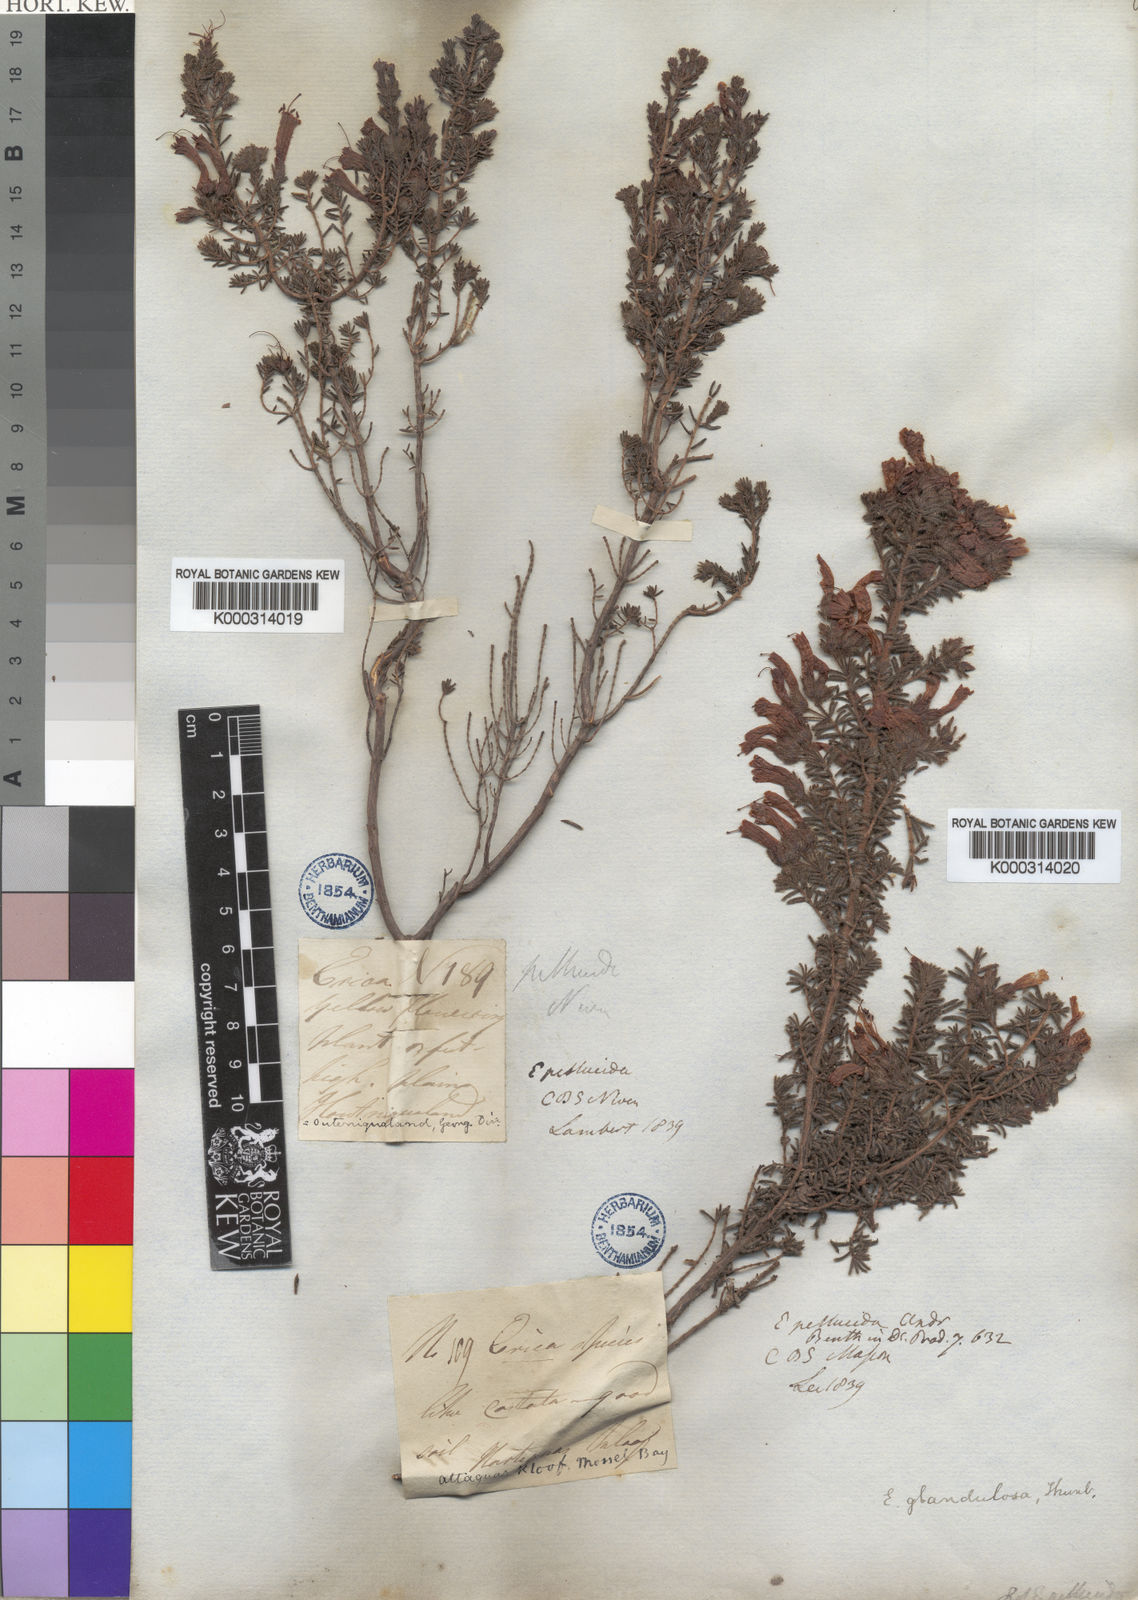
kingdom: Plantae
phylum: Tracheophyta
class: Magnoliopsida
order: Ericales
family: Ericaceae
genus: Erica
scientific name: Erica glandulosa
